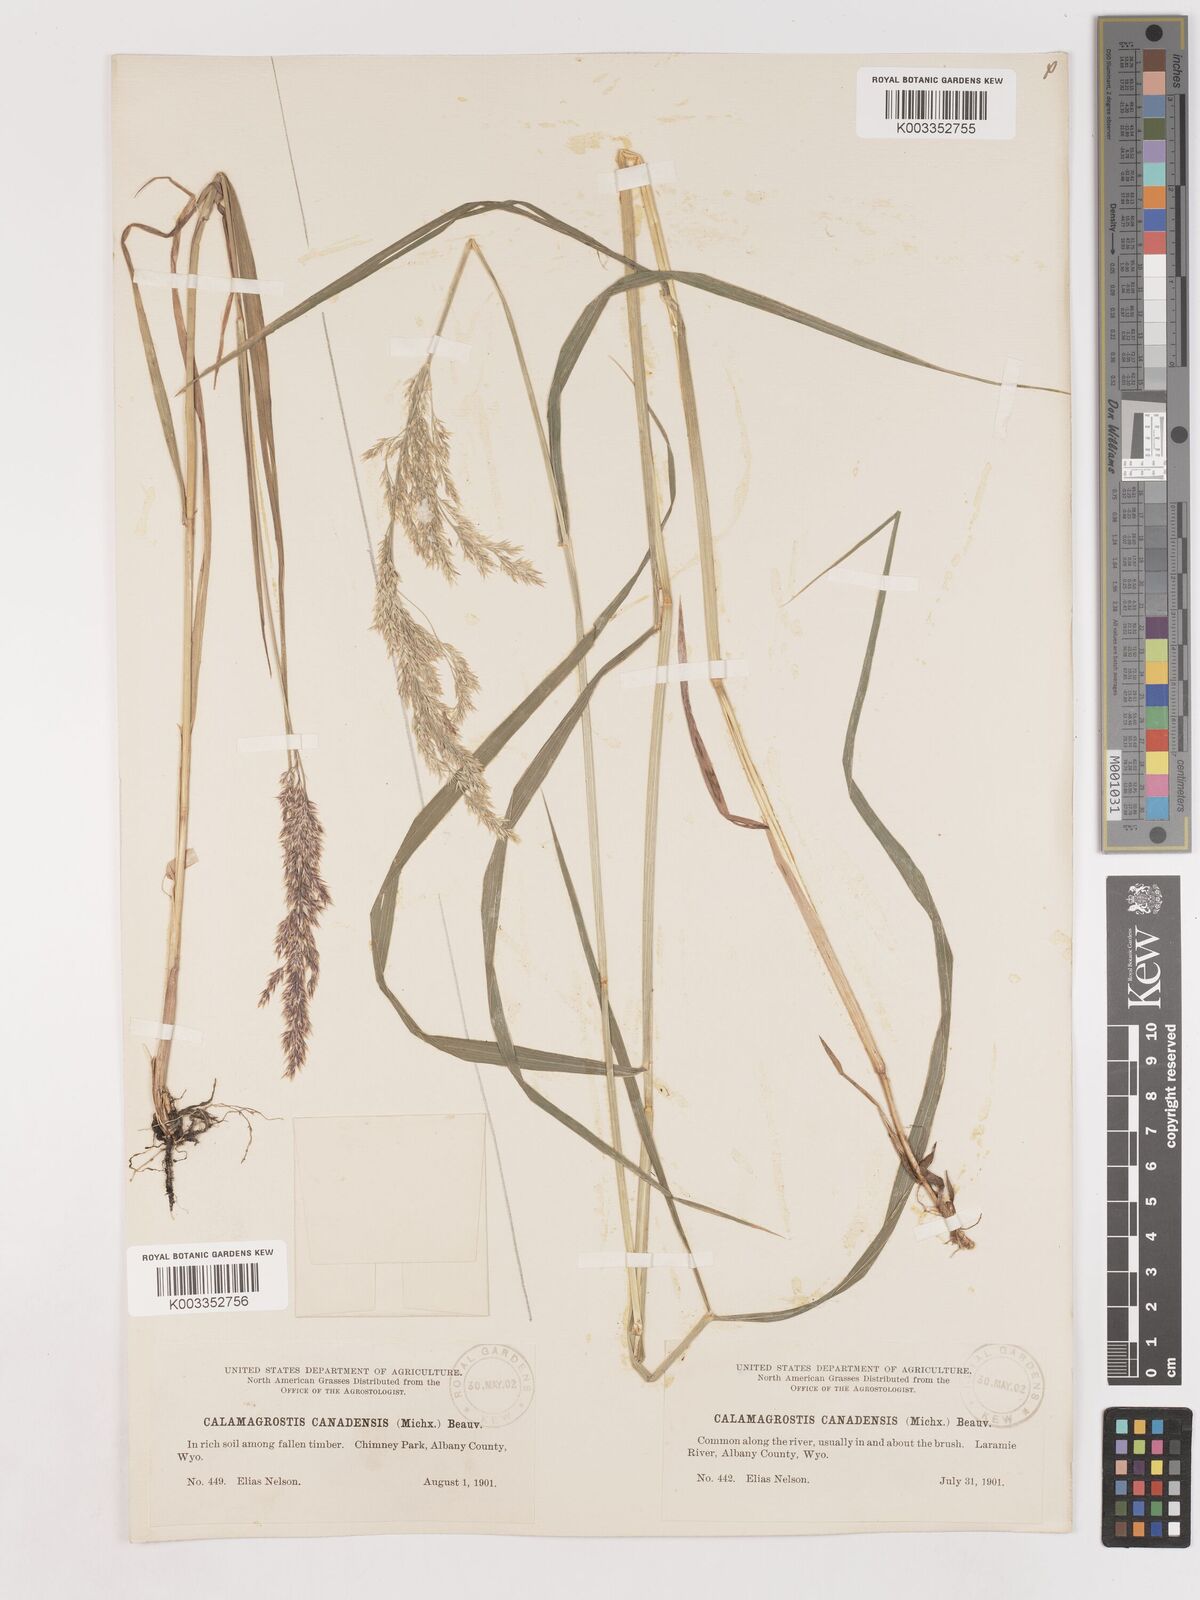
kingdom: Plantae
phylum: Tracheophyta
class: Liliopsida
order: Poales
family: Poaceae
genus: Calamagrostis
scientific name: Calamagrostis canadensis
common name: Canada bluejoint
